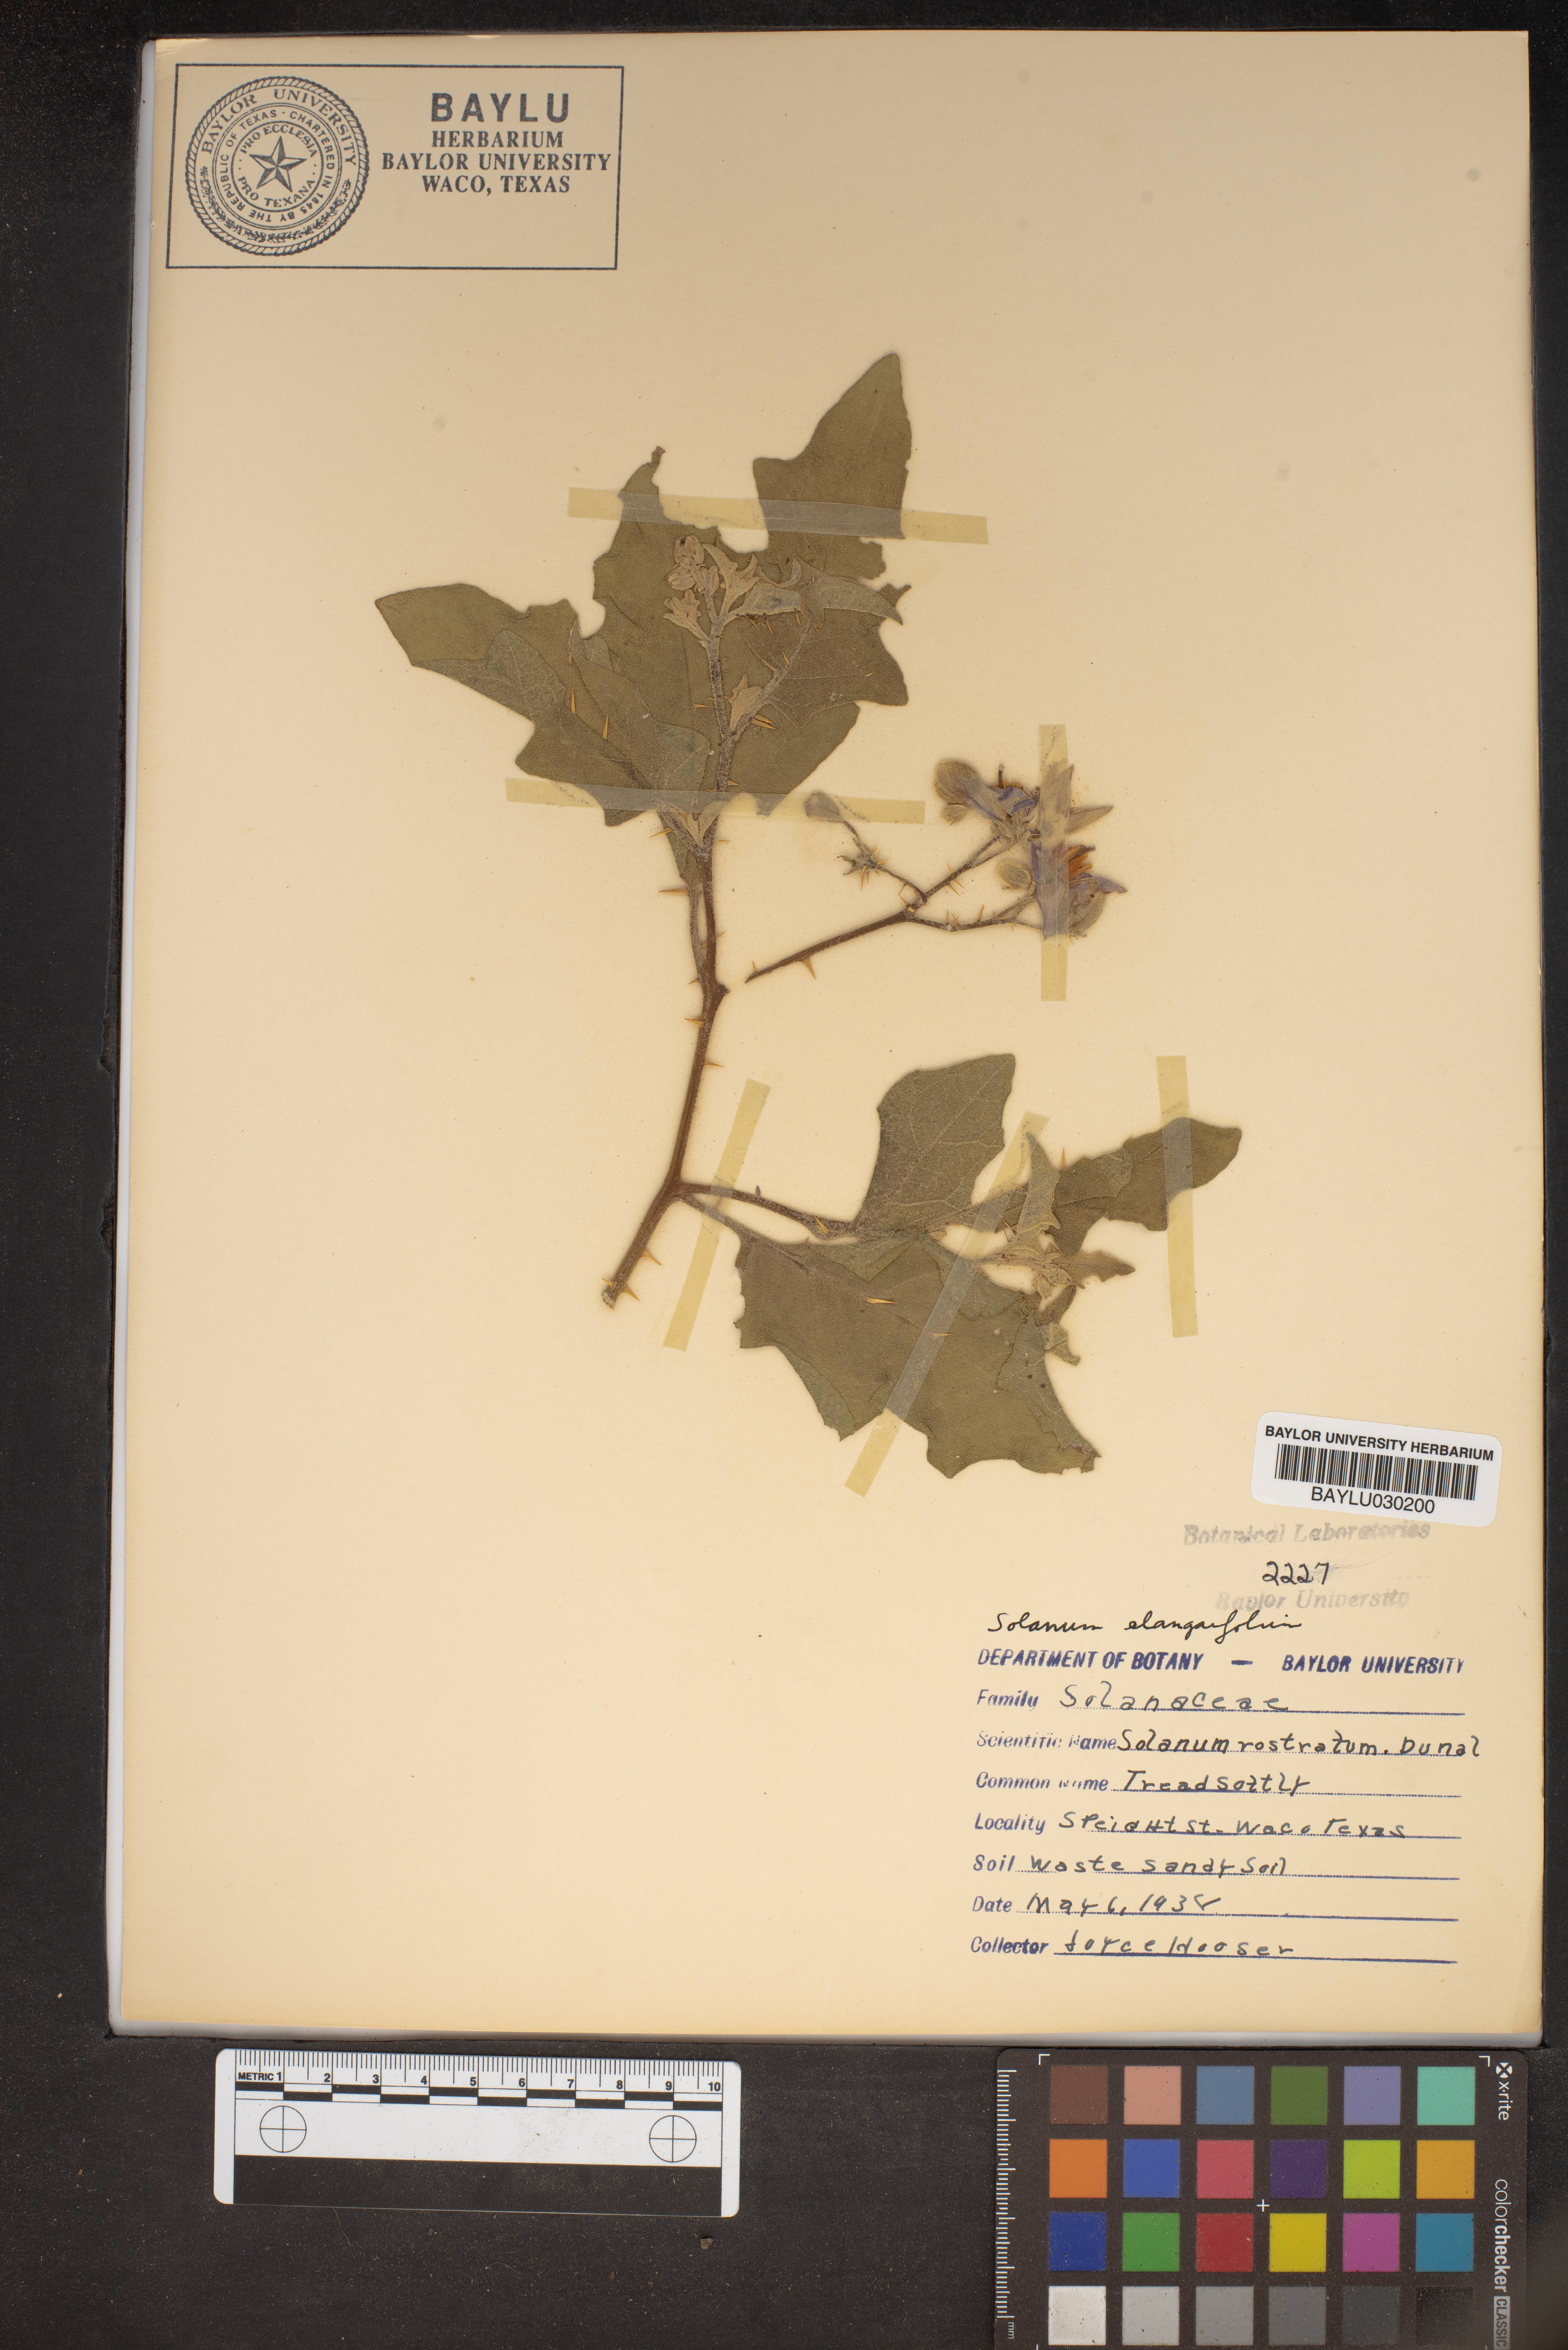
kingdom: Plantae
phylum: Tracheophyta
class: Magnoliopsida
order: Solanales
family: Solanaceae
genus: Solanum
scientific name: Solanum angustifolium
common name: Buffalobur nightshade
